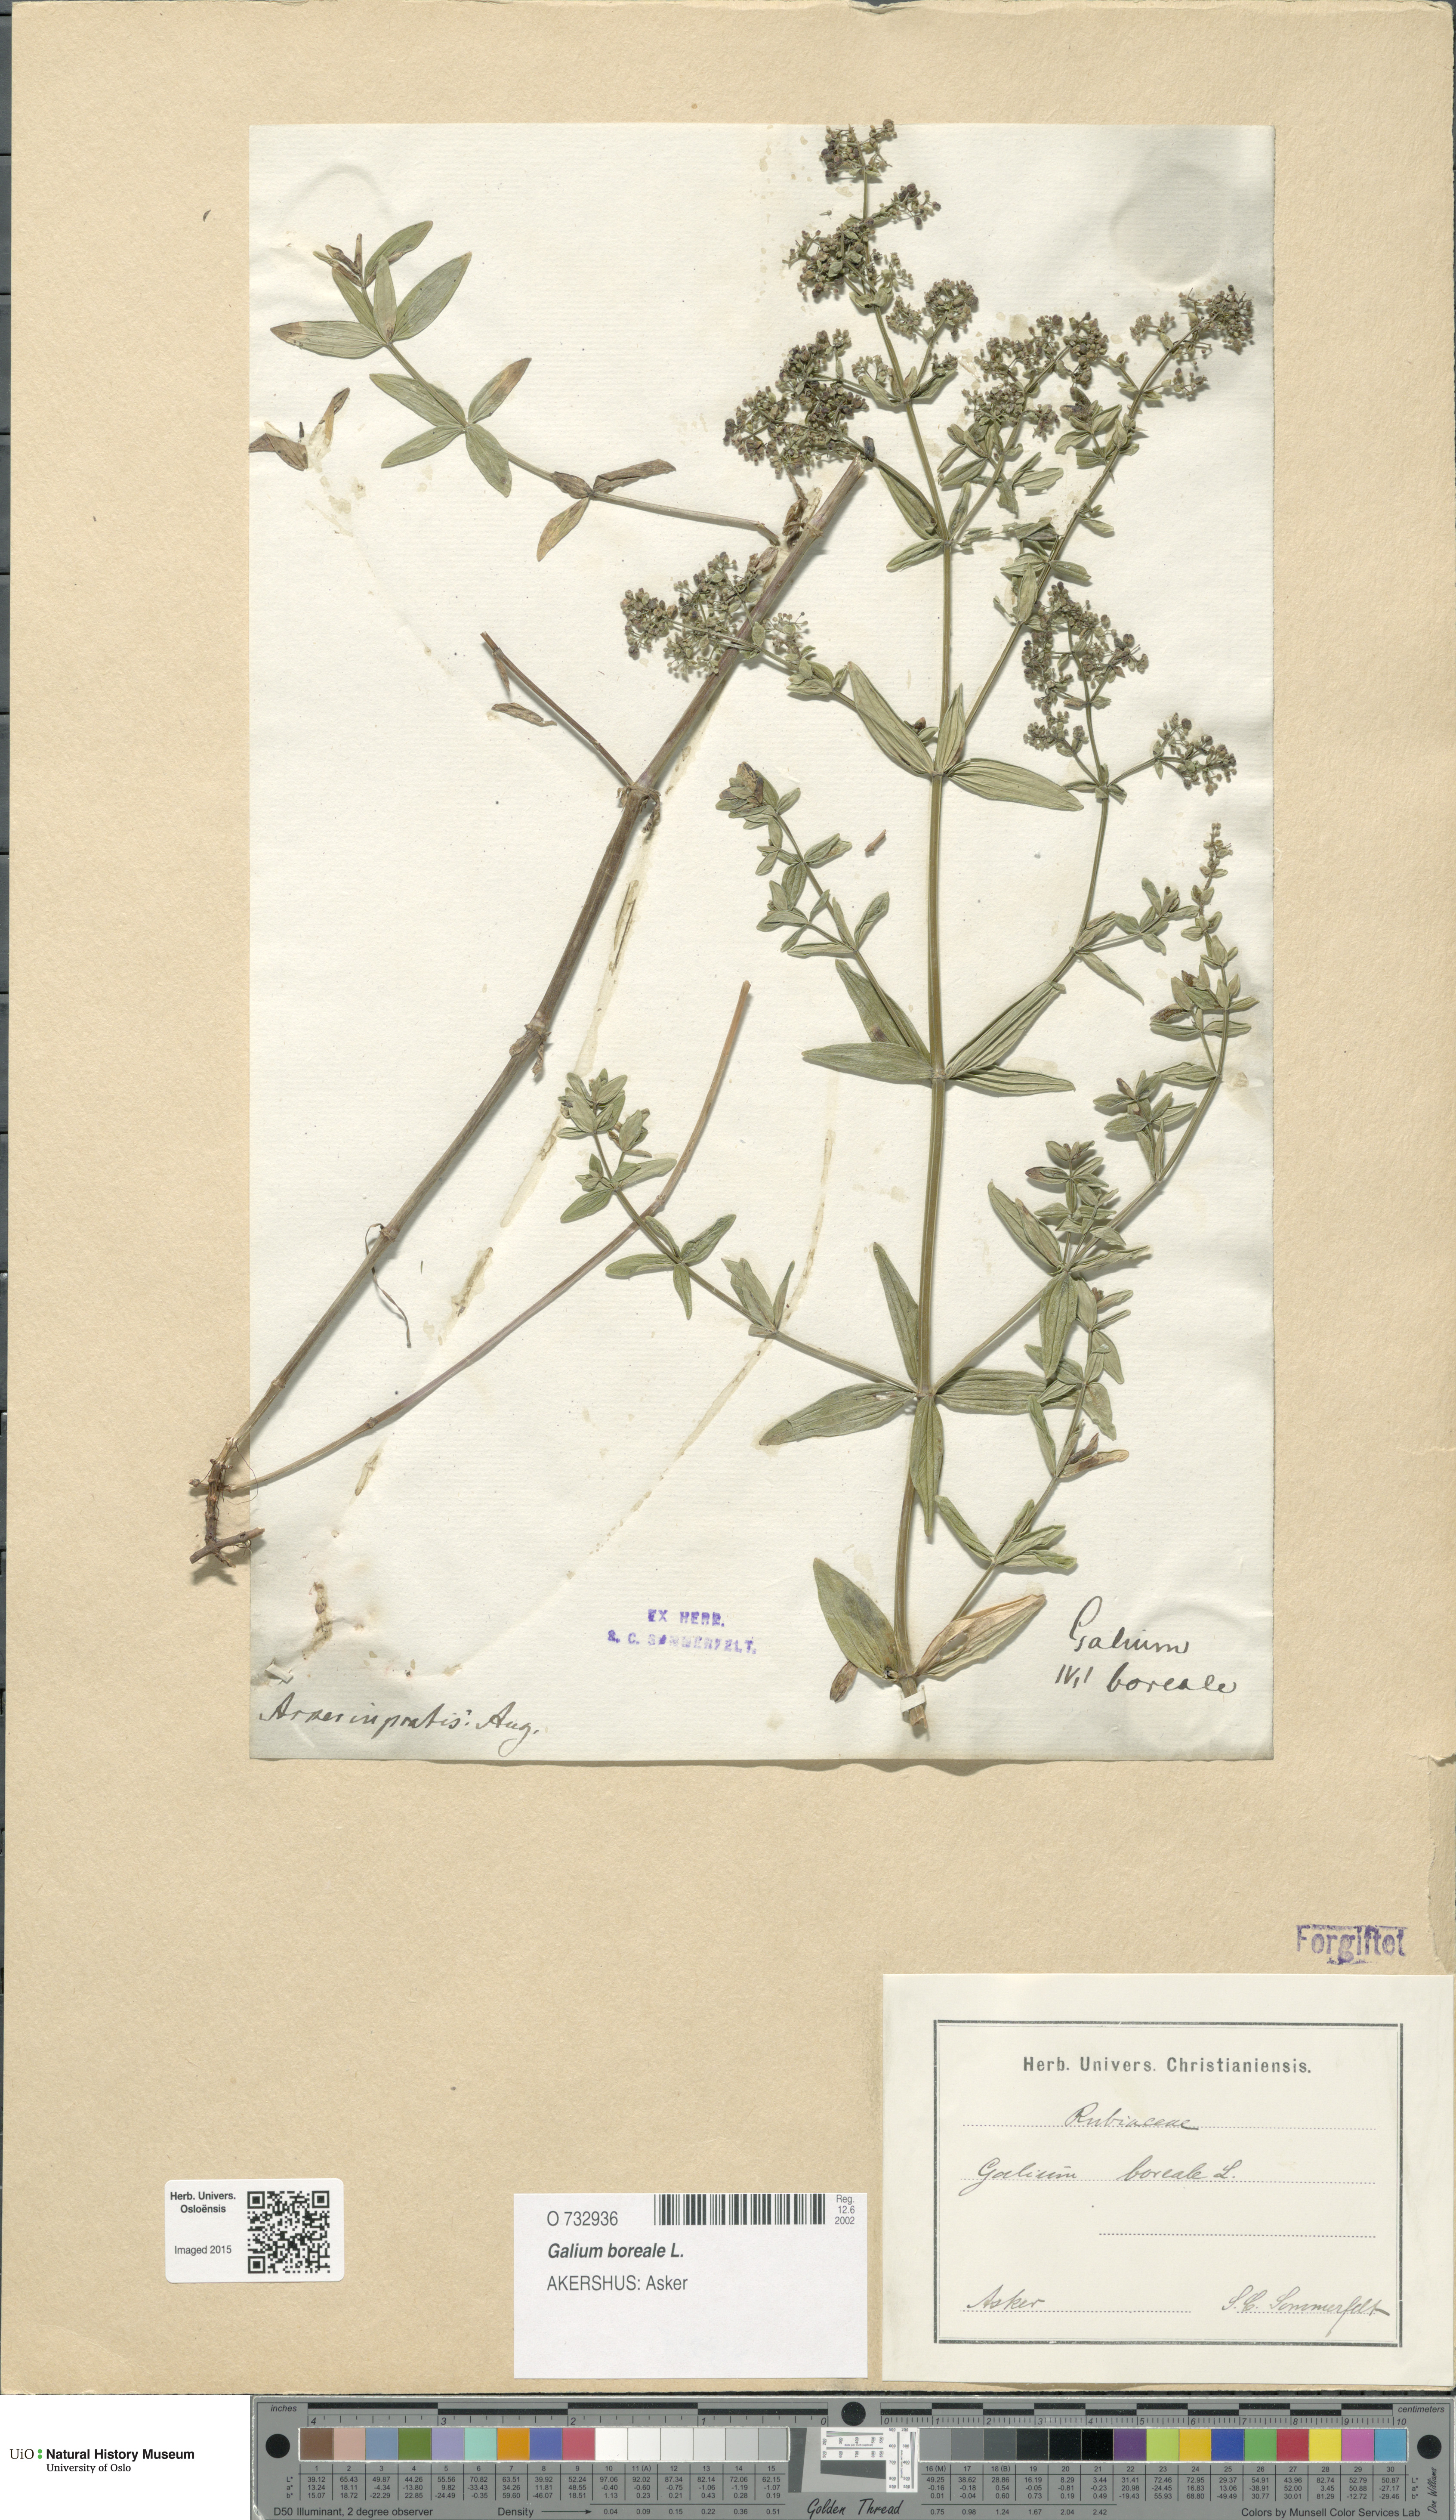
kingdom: Plantae
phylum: Tracheophyta
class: Magnoliopsida
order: Gentianales
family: Rubiaceae
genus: Galium
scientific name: Galium boreale
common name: Northern bedstraw
